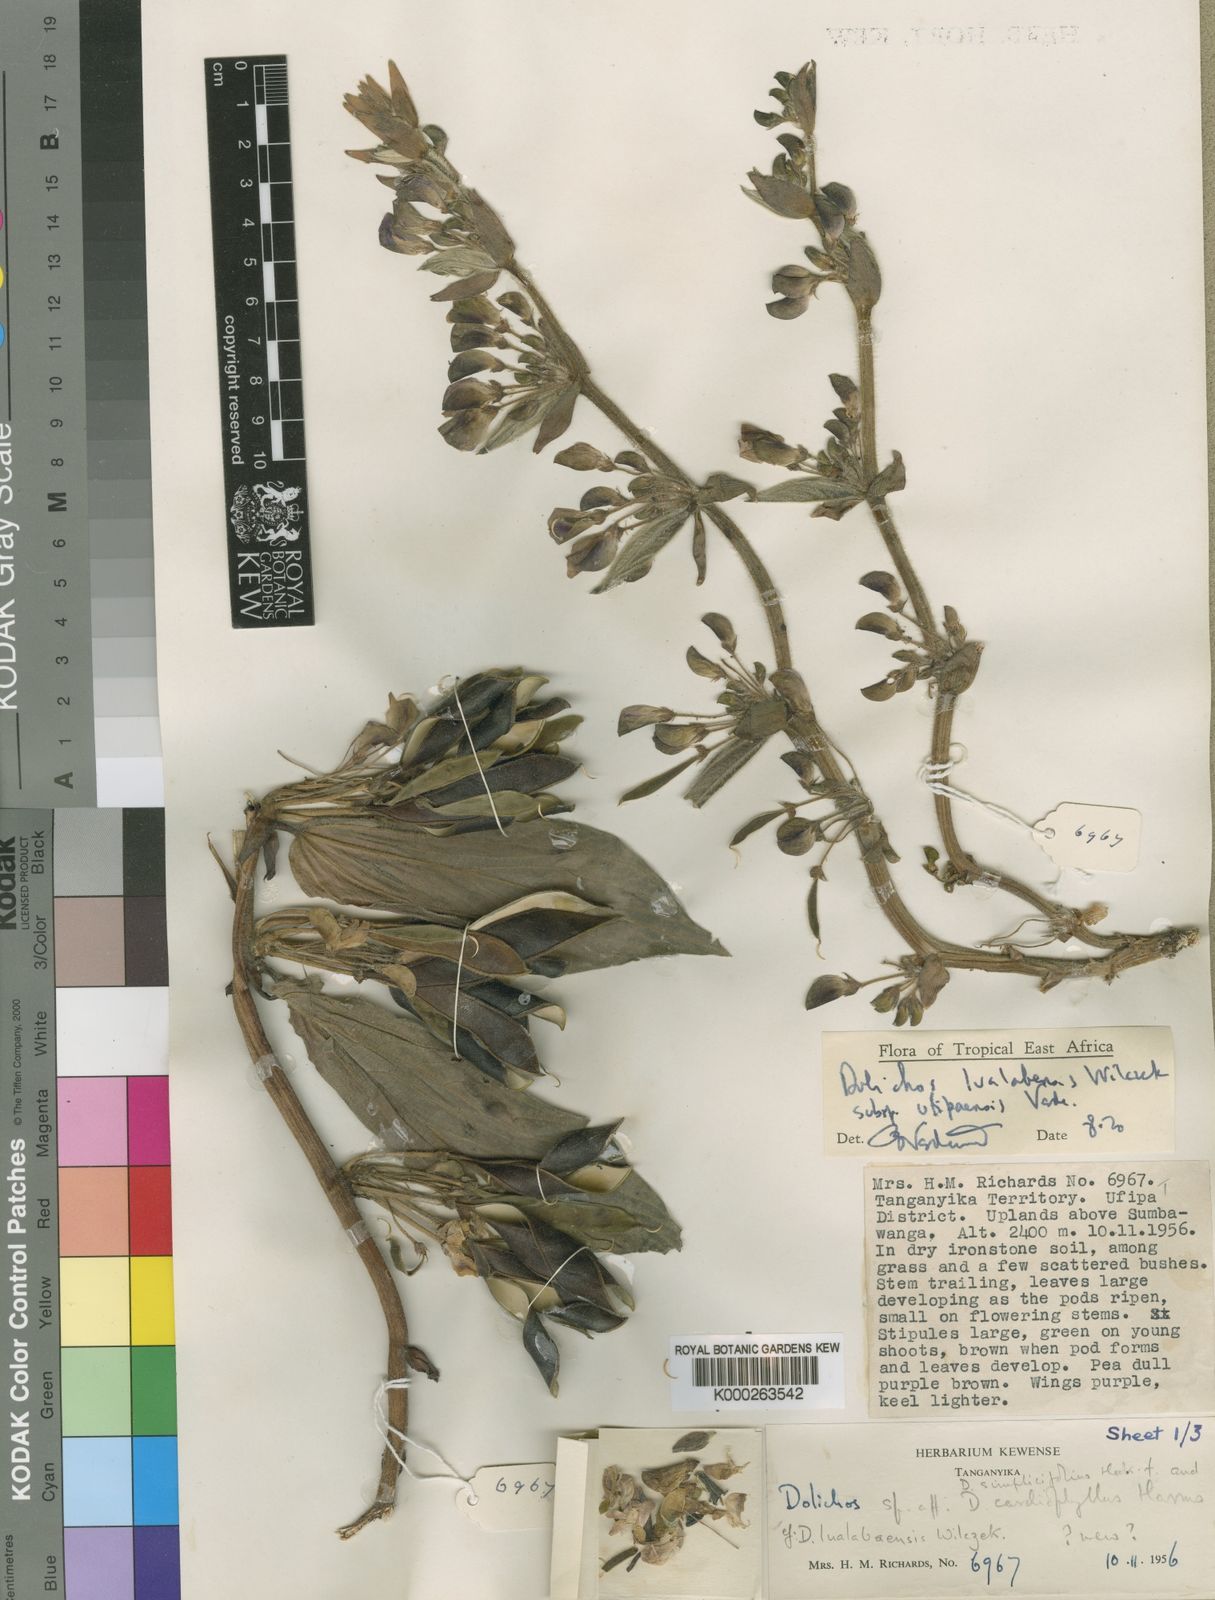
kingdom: Plantae
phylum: Tracheophyta
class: Magnoliopsida
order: Fabales
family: Fabaceae
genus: Dolichos
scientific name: Dolichos lualabensis
